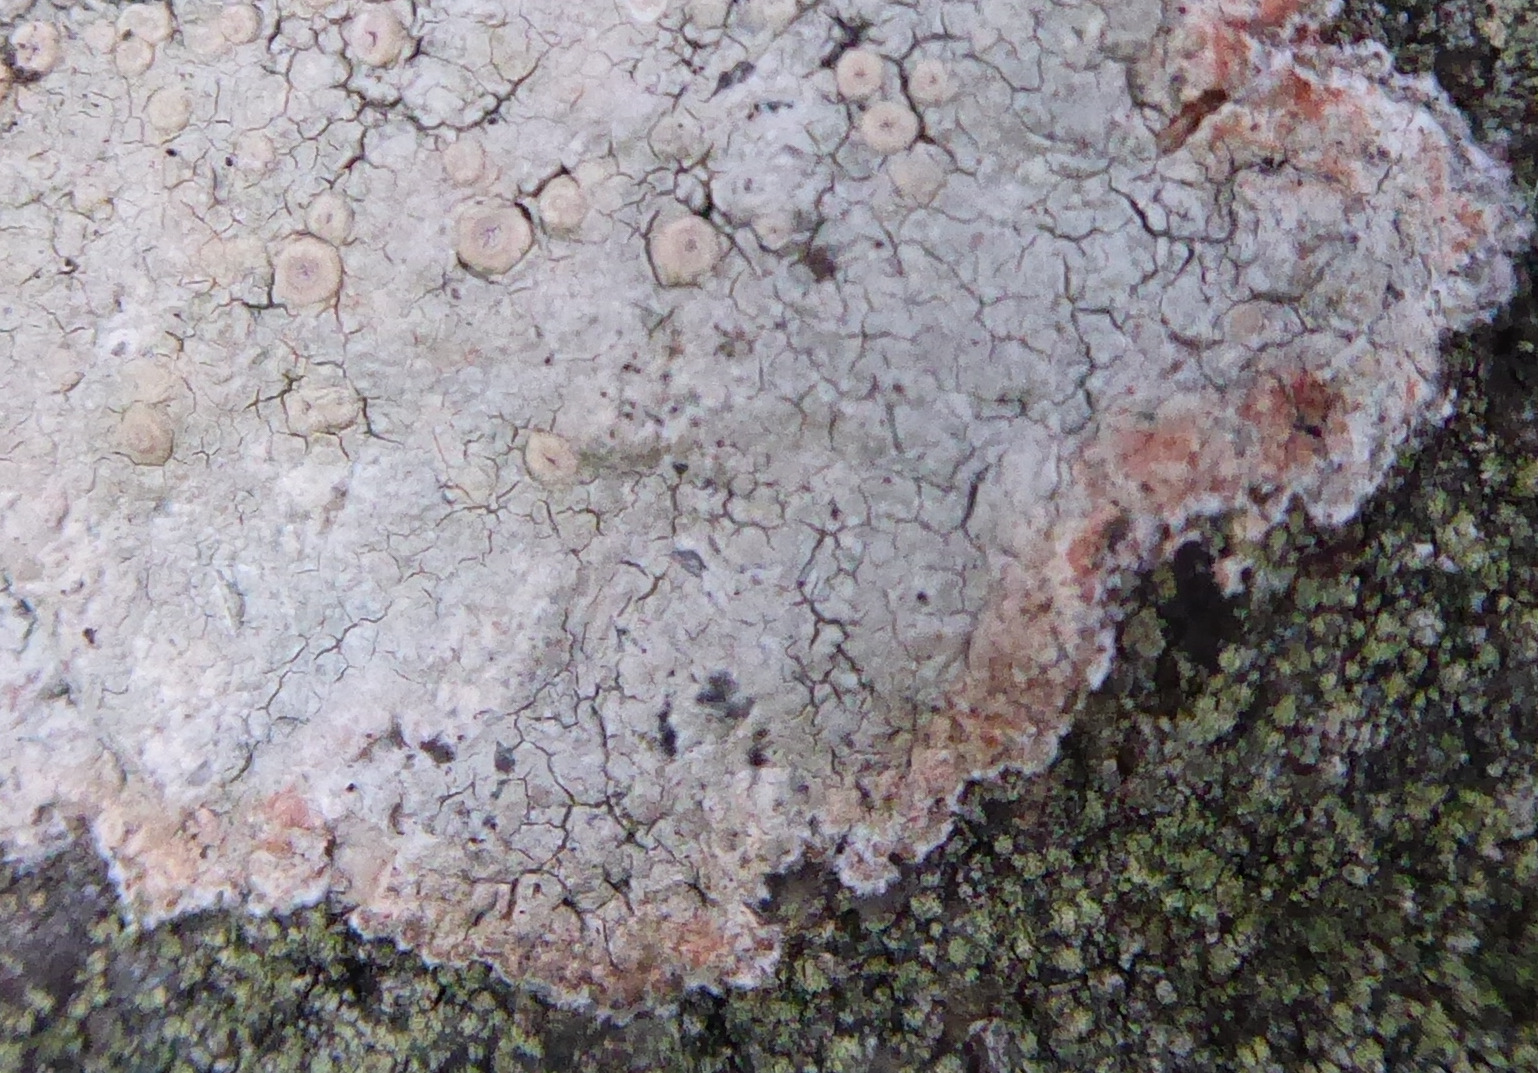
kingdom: Fungi
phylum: Ascomycota
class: Lecanoromycetes
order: Pertusariales
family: Ochrolechiaceae
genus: Ochrolechia
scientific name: Ochrolechia parella
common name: almindelig blegskivelav
